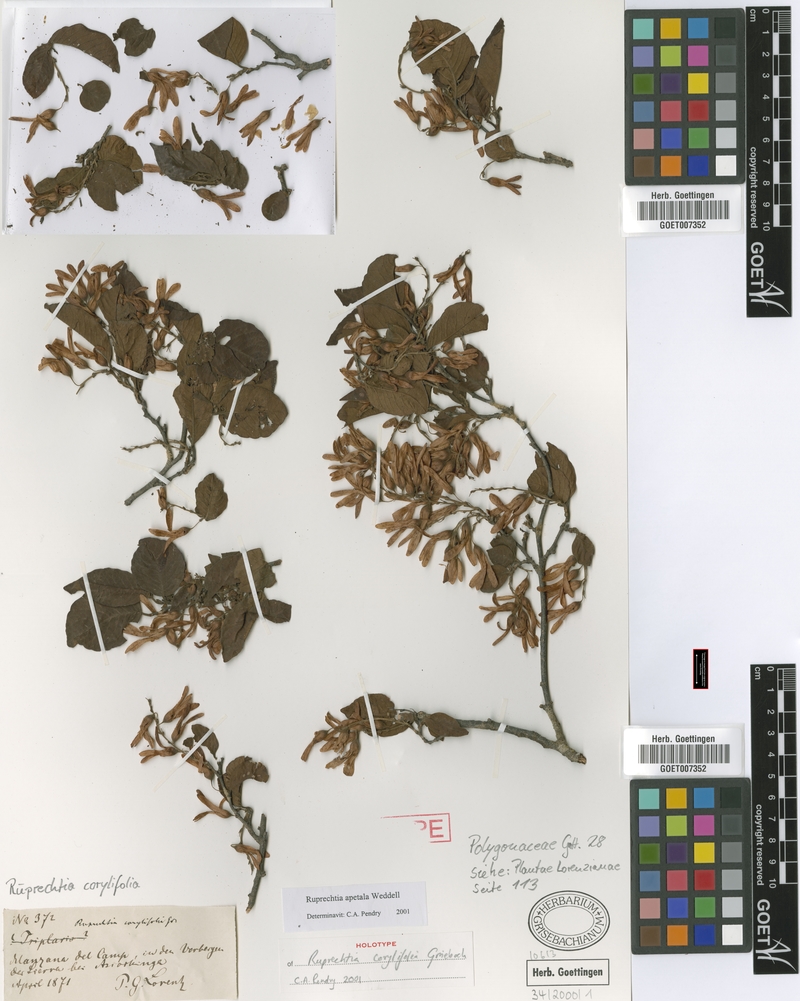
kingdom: Plantae
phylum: Tracheophyta
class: Magnoliopsida
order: Caryophyllales
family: Polygonaceae
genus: Ruprechtia
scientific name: Ruprechtia apetala
